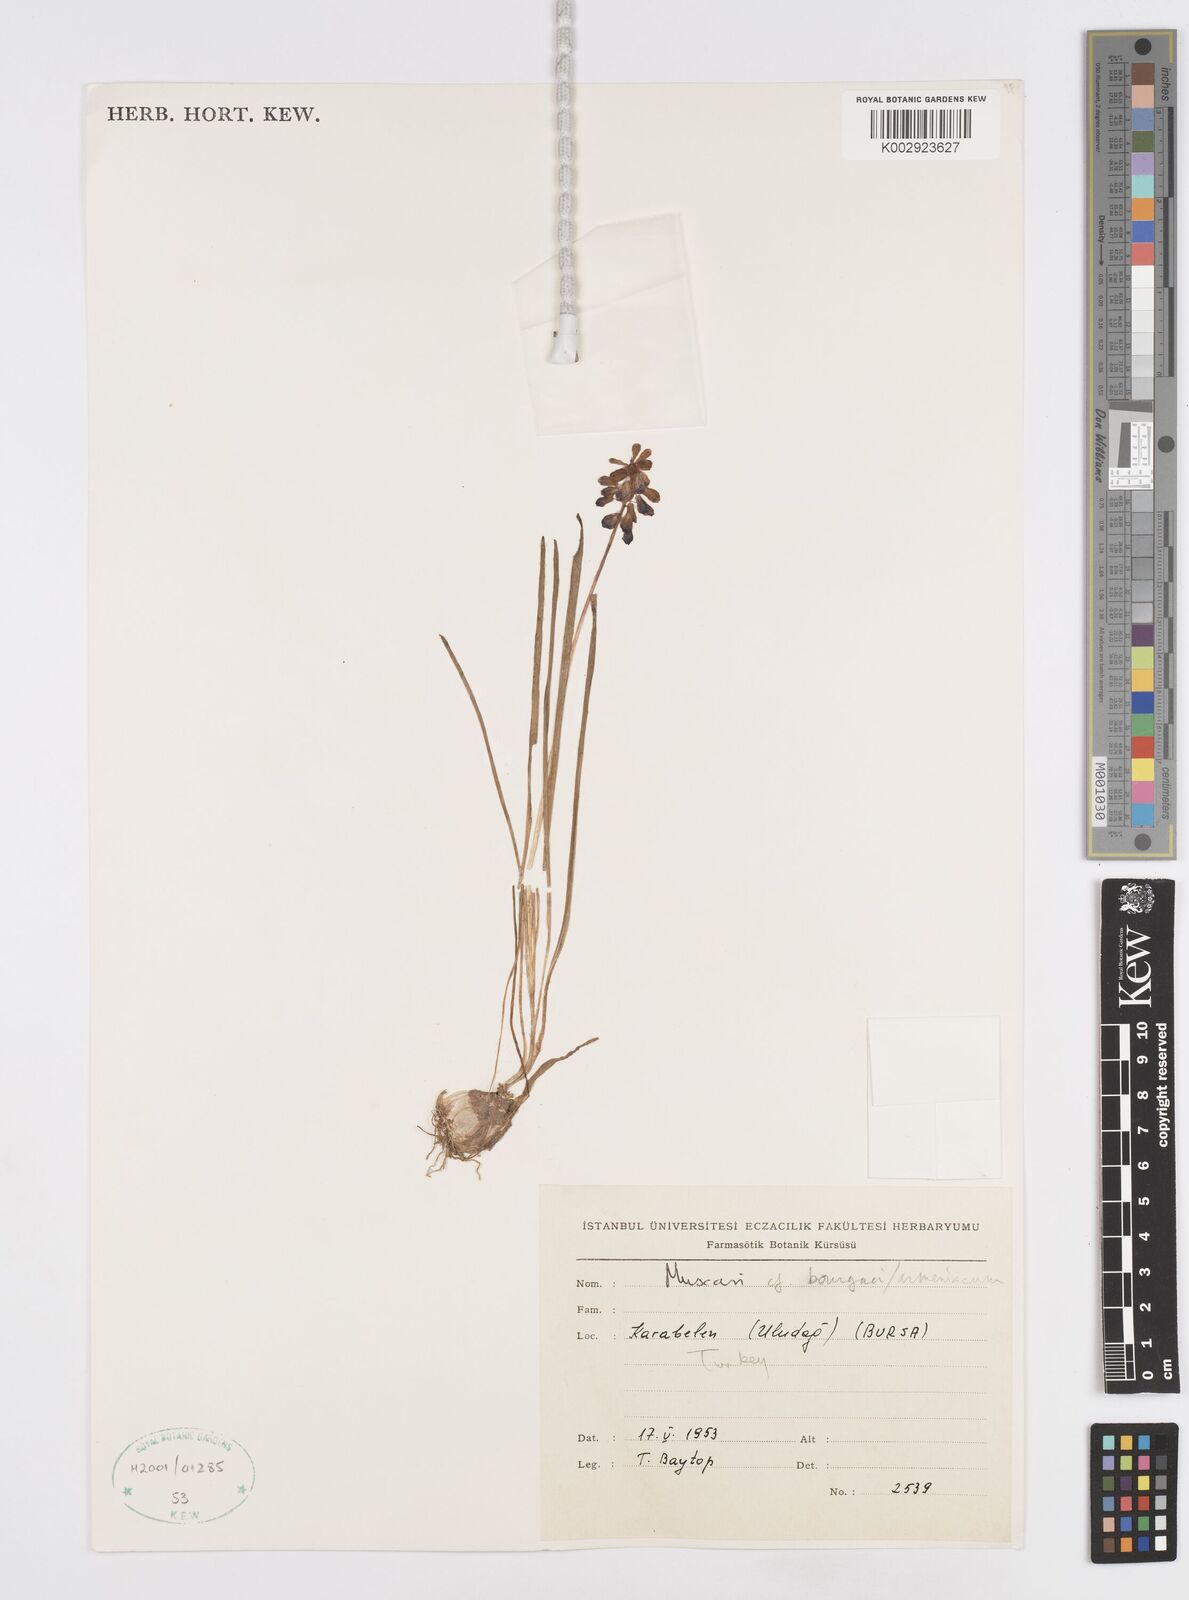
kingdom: Plantae
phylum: Tracheophyta
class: Liliopsida
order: Asparagales
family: Asparagaceae
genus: Muscari
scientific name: Muscari bourgaei
